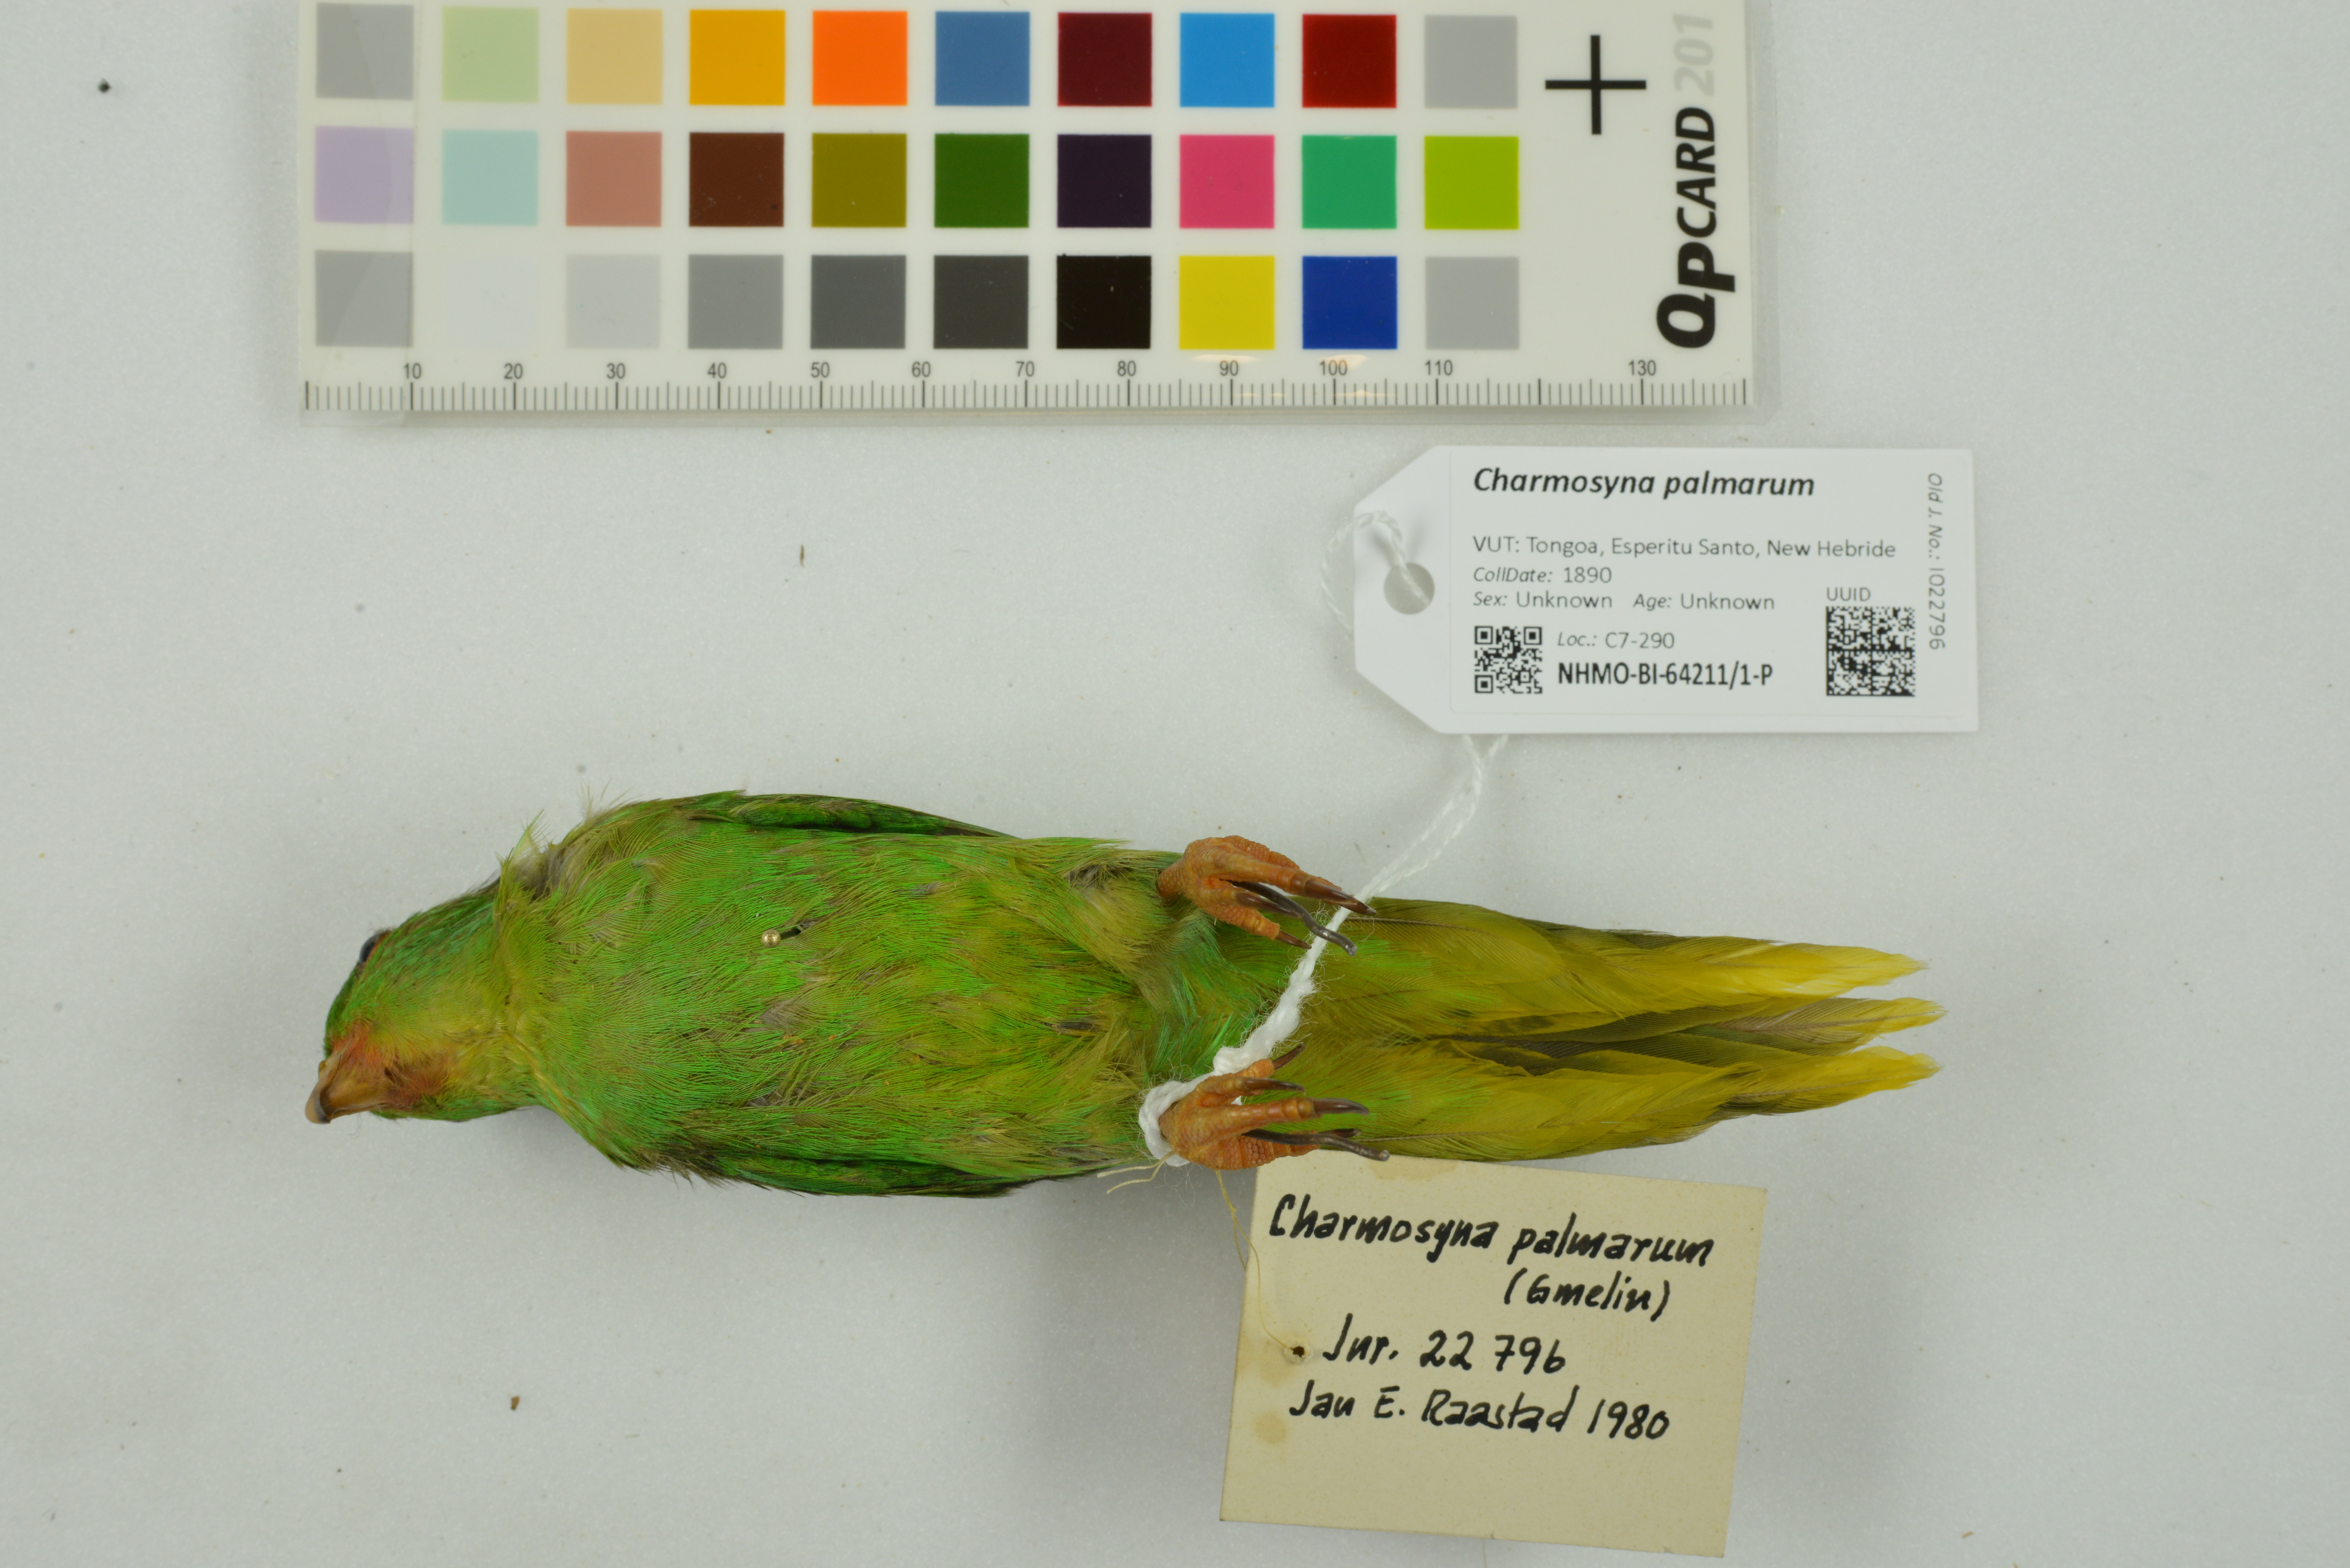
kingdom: Animalia
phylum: Chordata
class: Aves
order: Psittaciformes
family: Psittacidae
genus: Charmosyna
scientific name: Charmosyna palmarum
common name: Palm lorikeet
